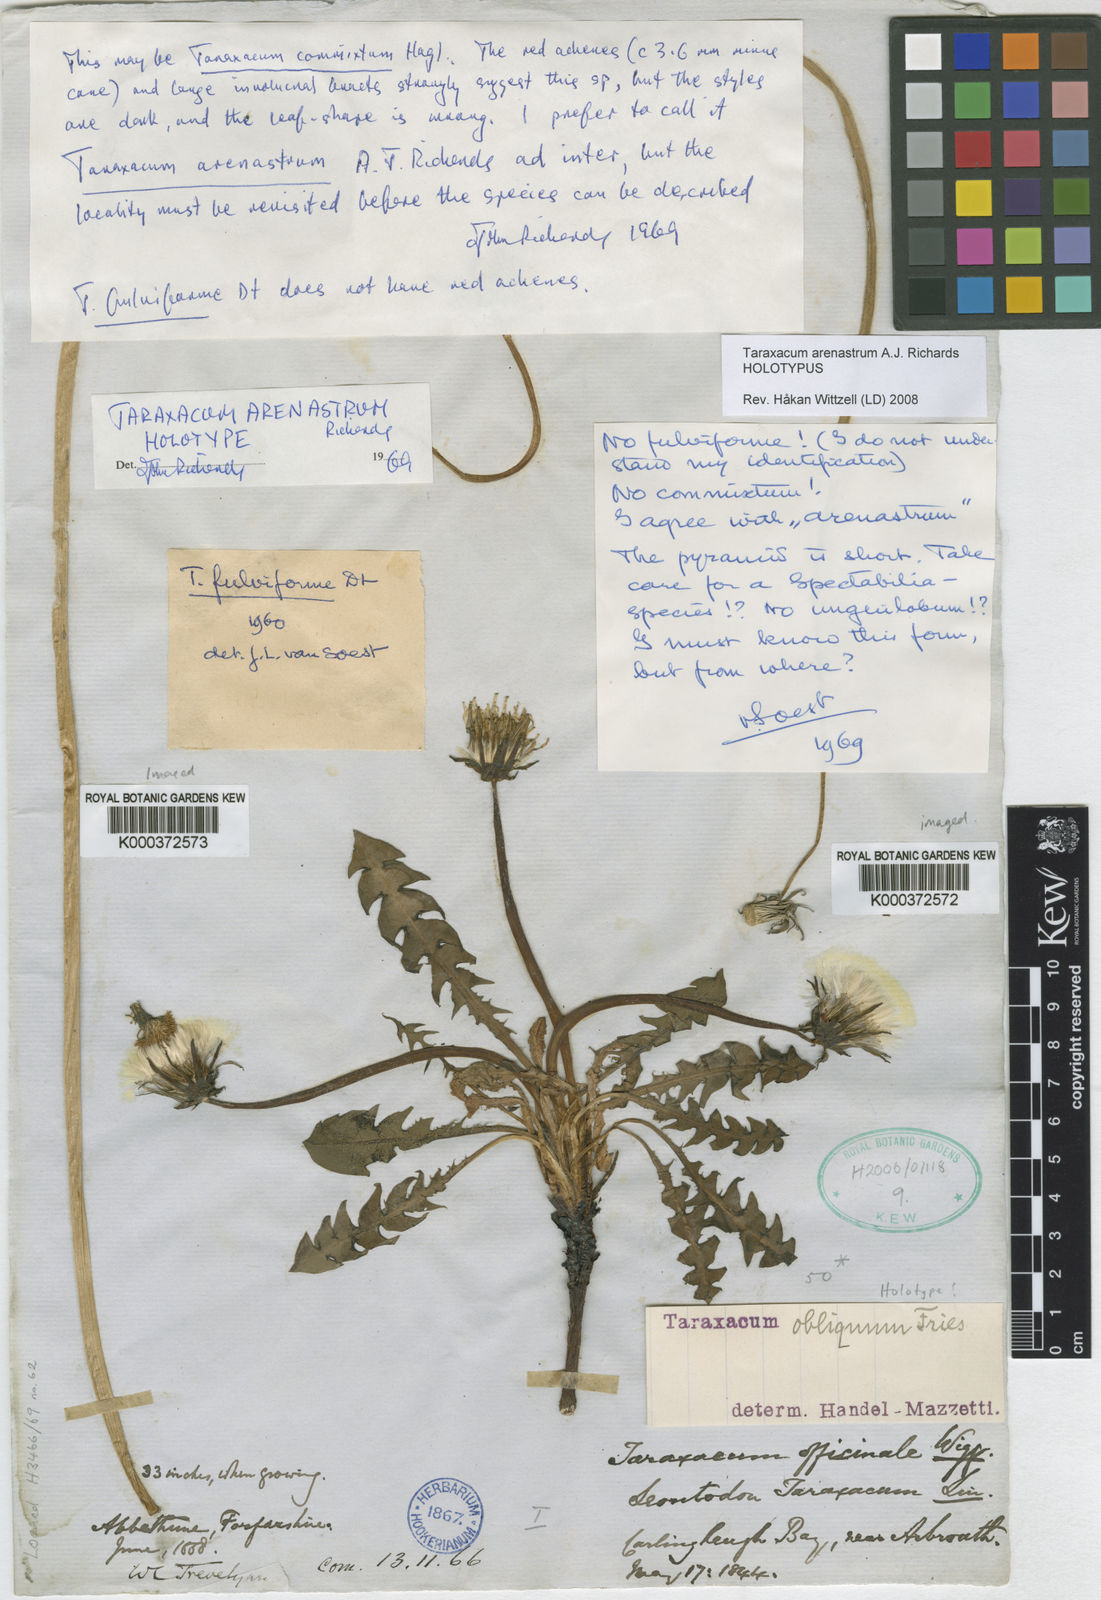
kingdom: Plantae
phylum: Tracheophyta
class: Magnoliopsida
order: Asterales
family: Asteraceae
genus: Taraxacum
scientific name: Taraxacum arenastrum
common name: Sand dandelion
